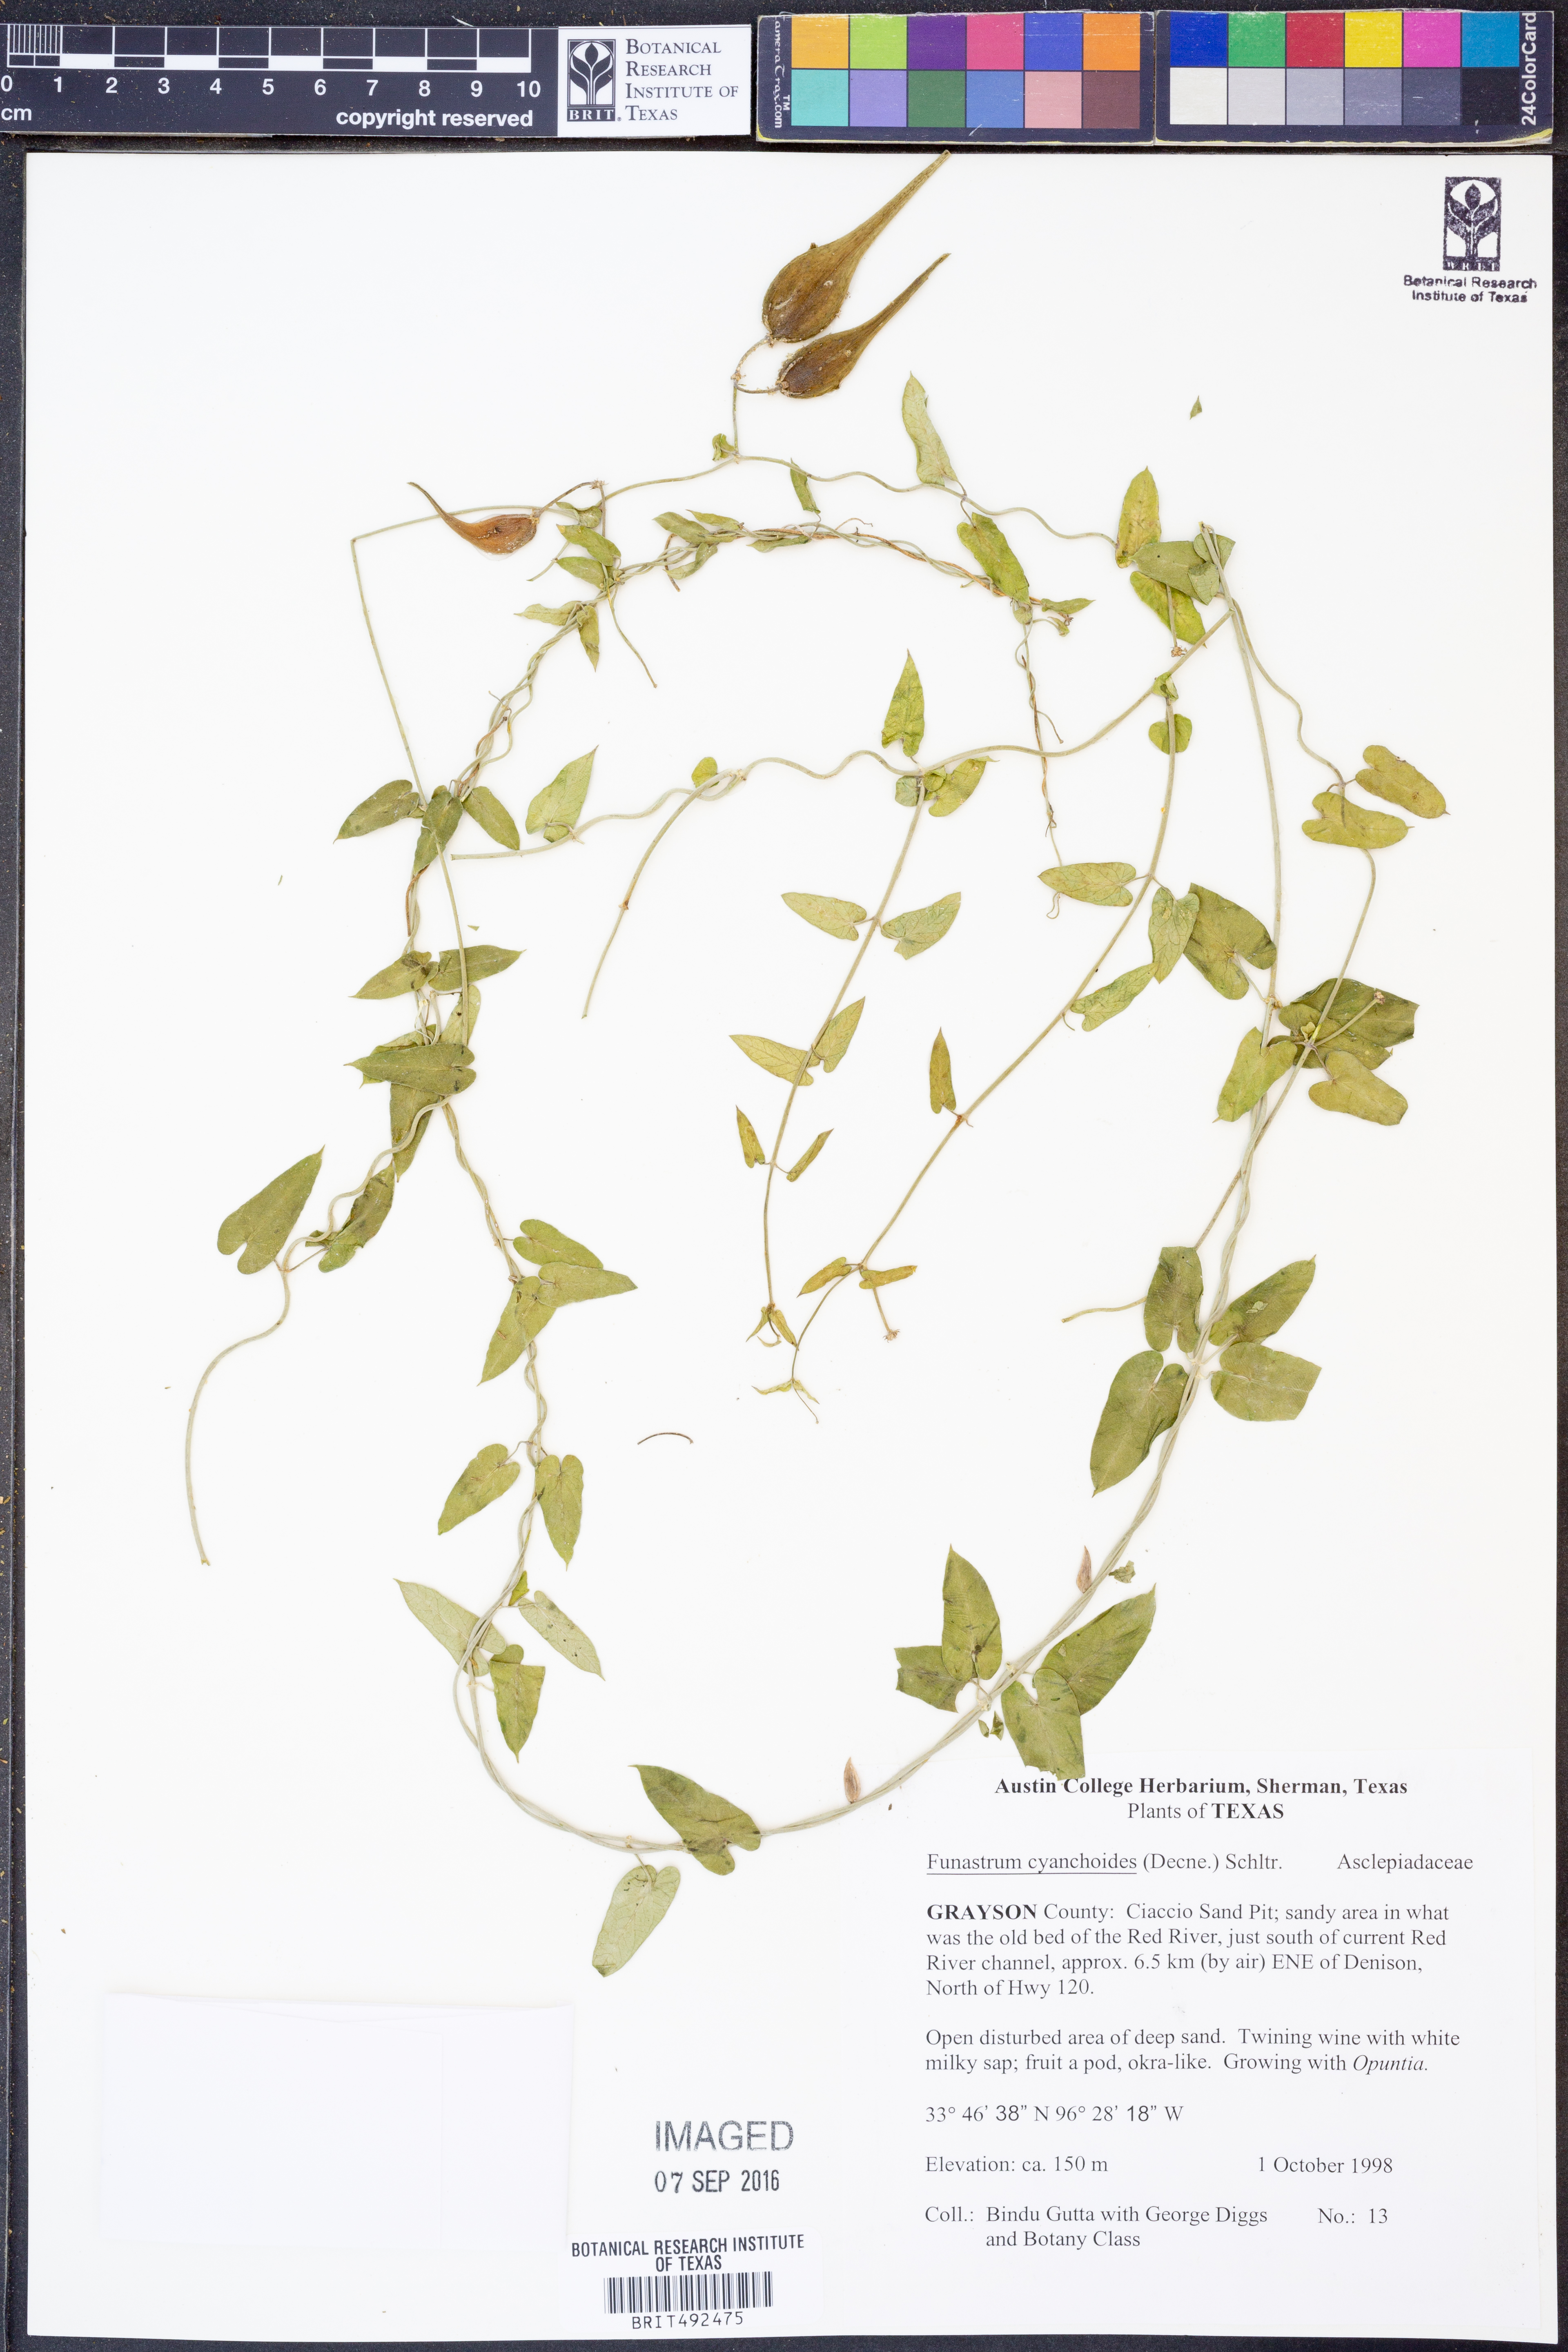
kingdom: Plantae
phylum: Tracheophyta
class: Magnoliopsida
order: Gentianales
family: Apocynaceae
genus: Funastrum
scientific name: Funastrum cynanchoides
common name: Climbing-milkweed
